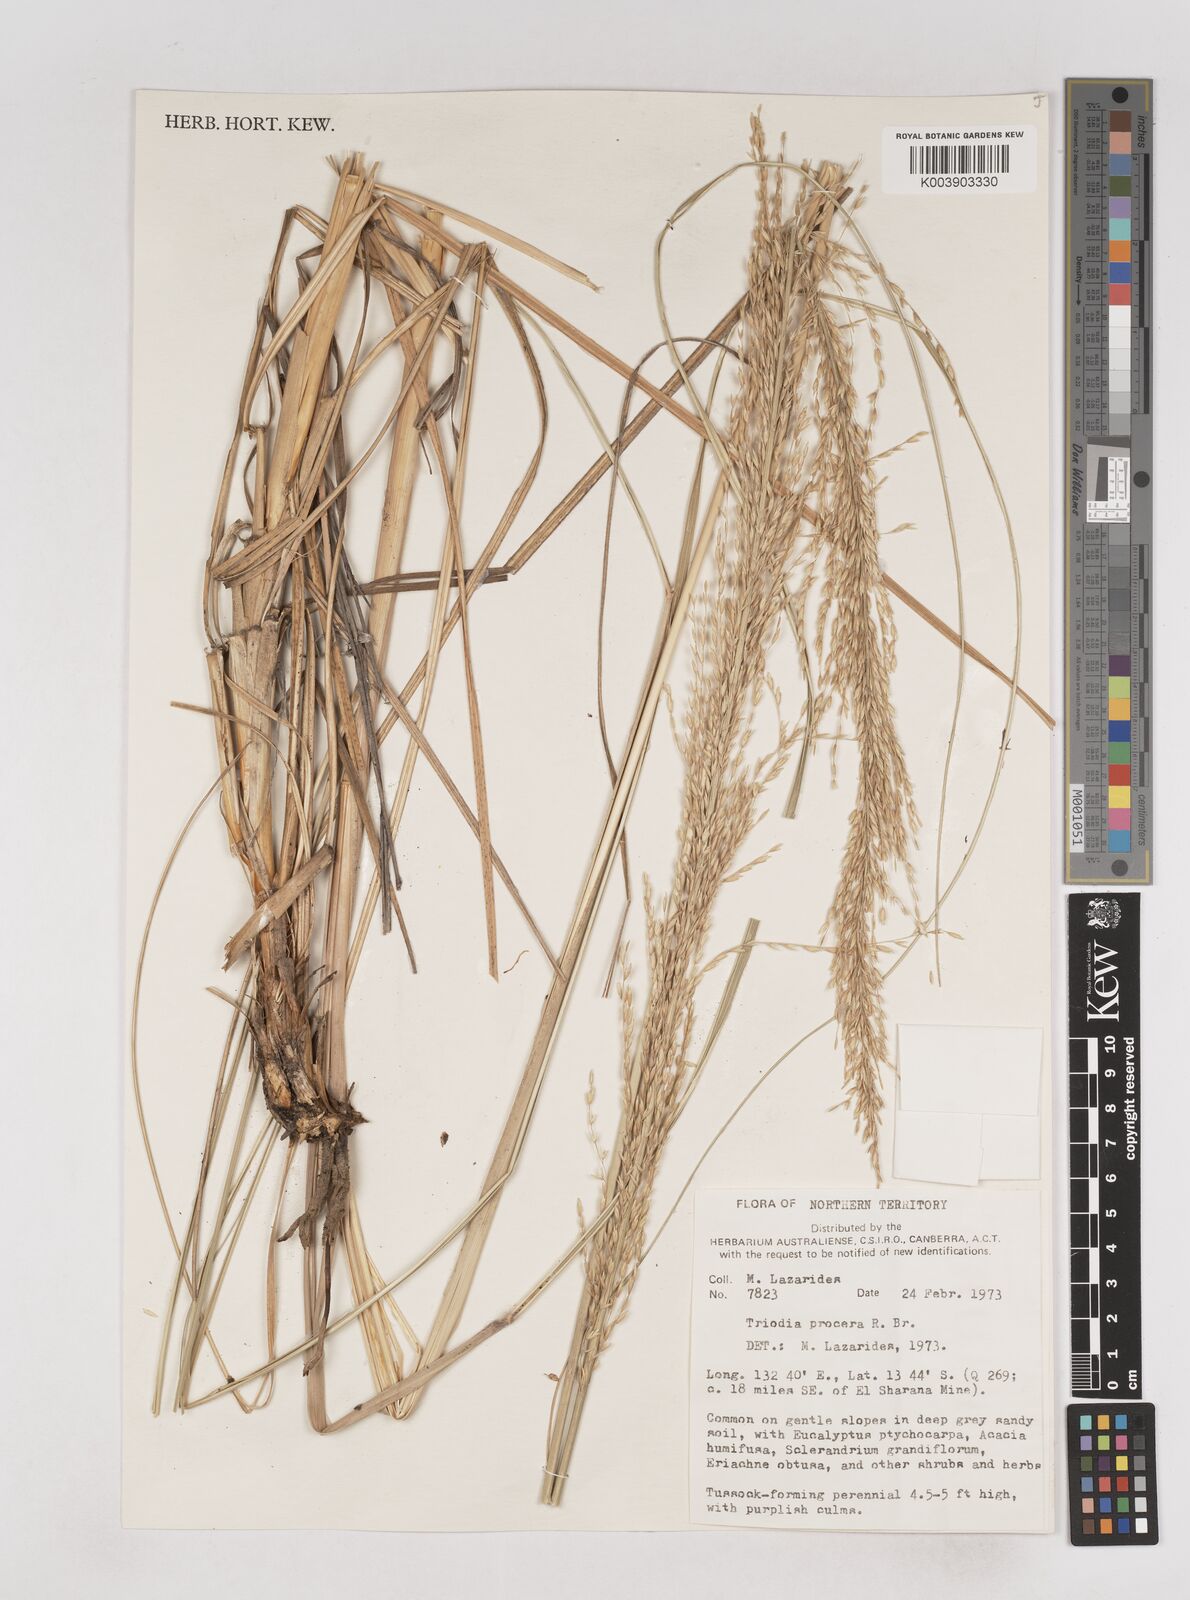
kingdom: Plantae
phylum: Tracheophyta
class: Liliopsida
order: Poales
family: Poaceae
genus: Triodia
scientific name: Triodia procera
